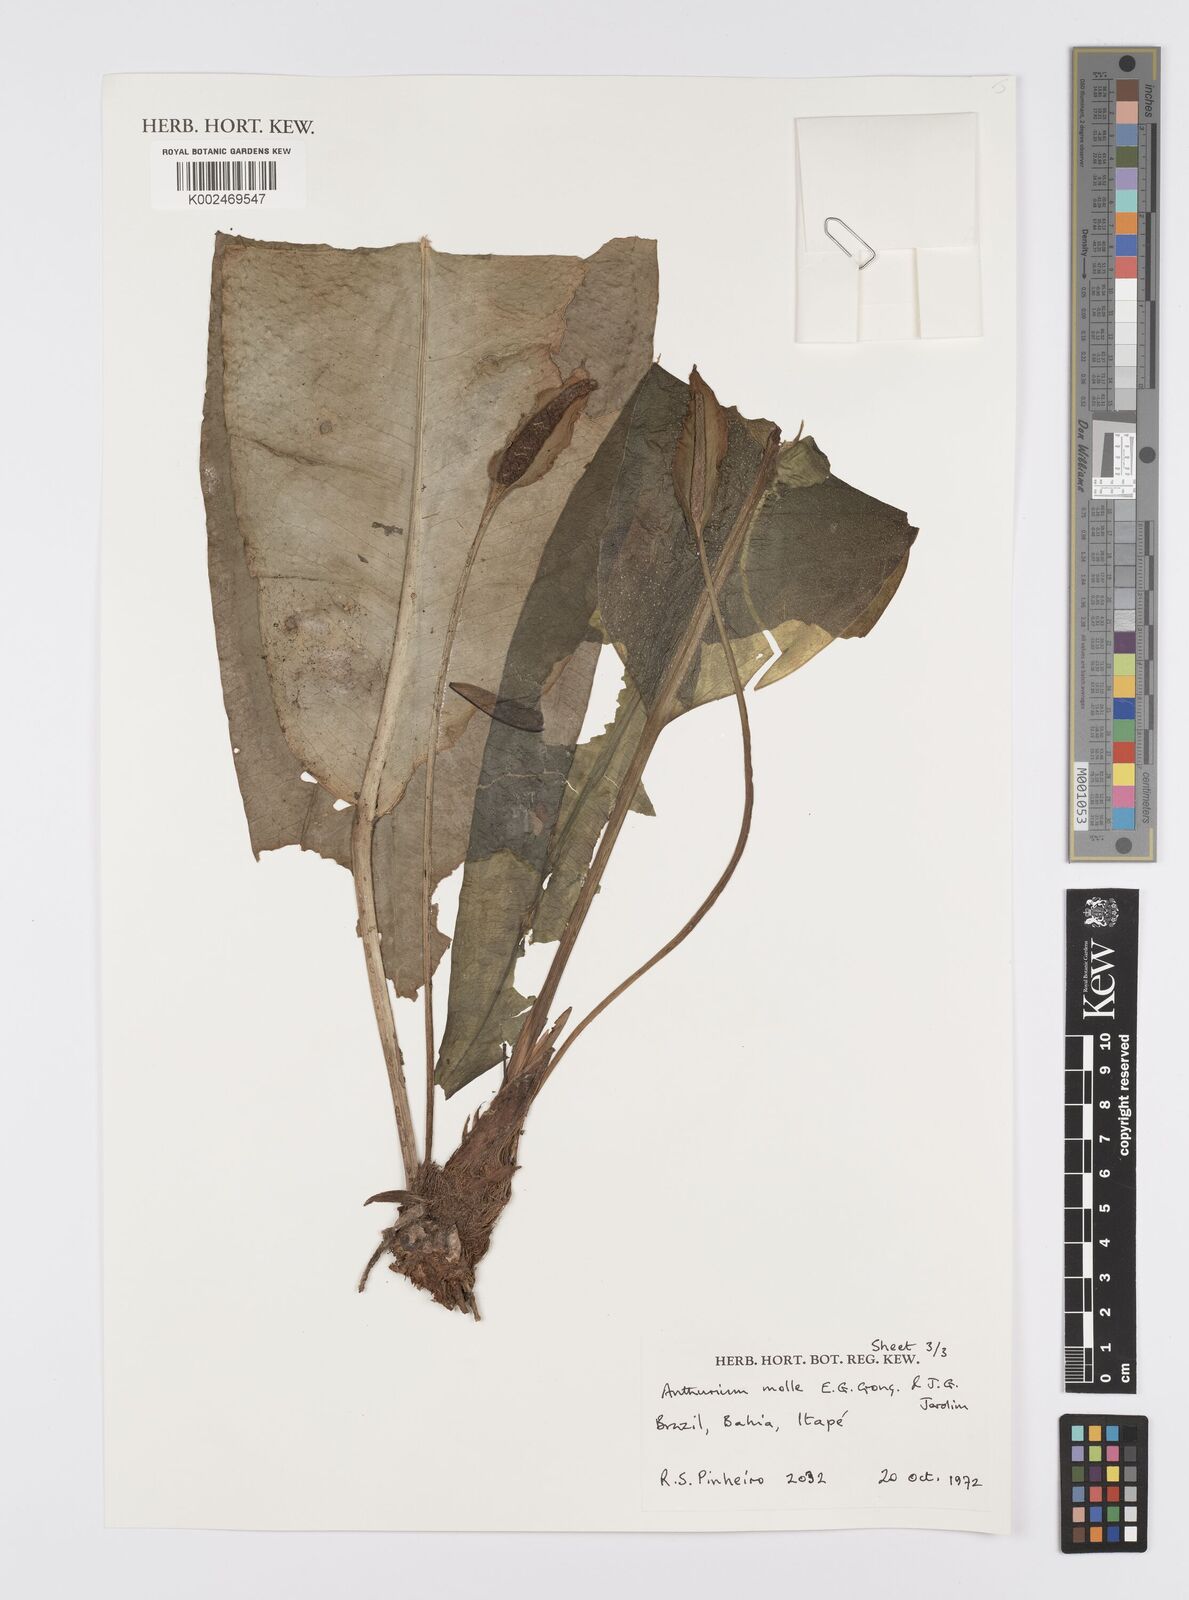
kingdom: Plantae
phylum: Tracheophyta
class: Liliopsida
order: Alismatales
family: Araceae
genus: Anthurium
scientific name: Anthurium molle
